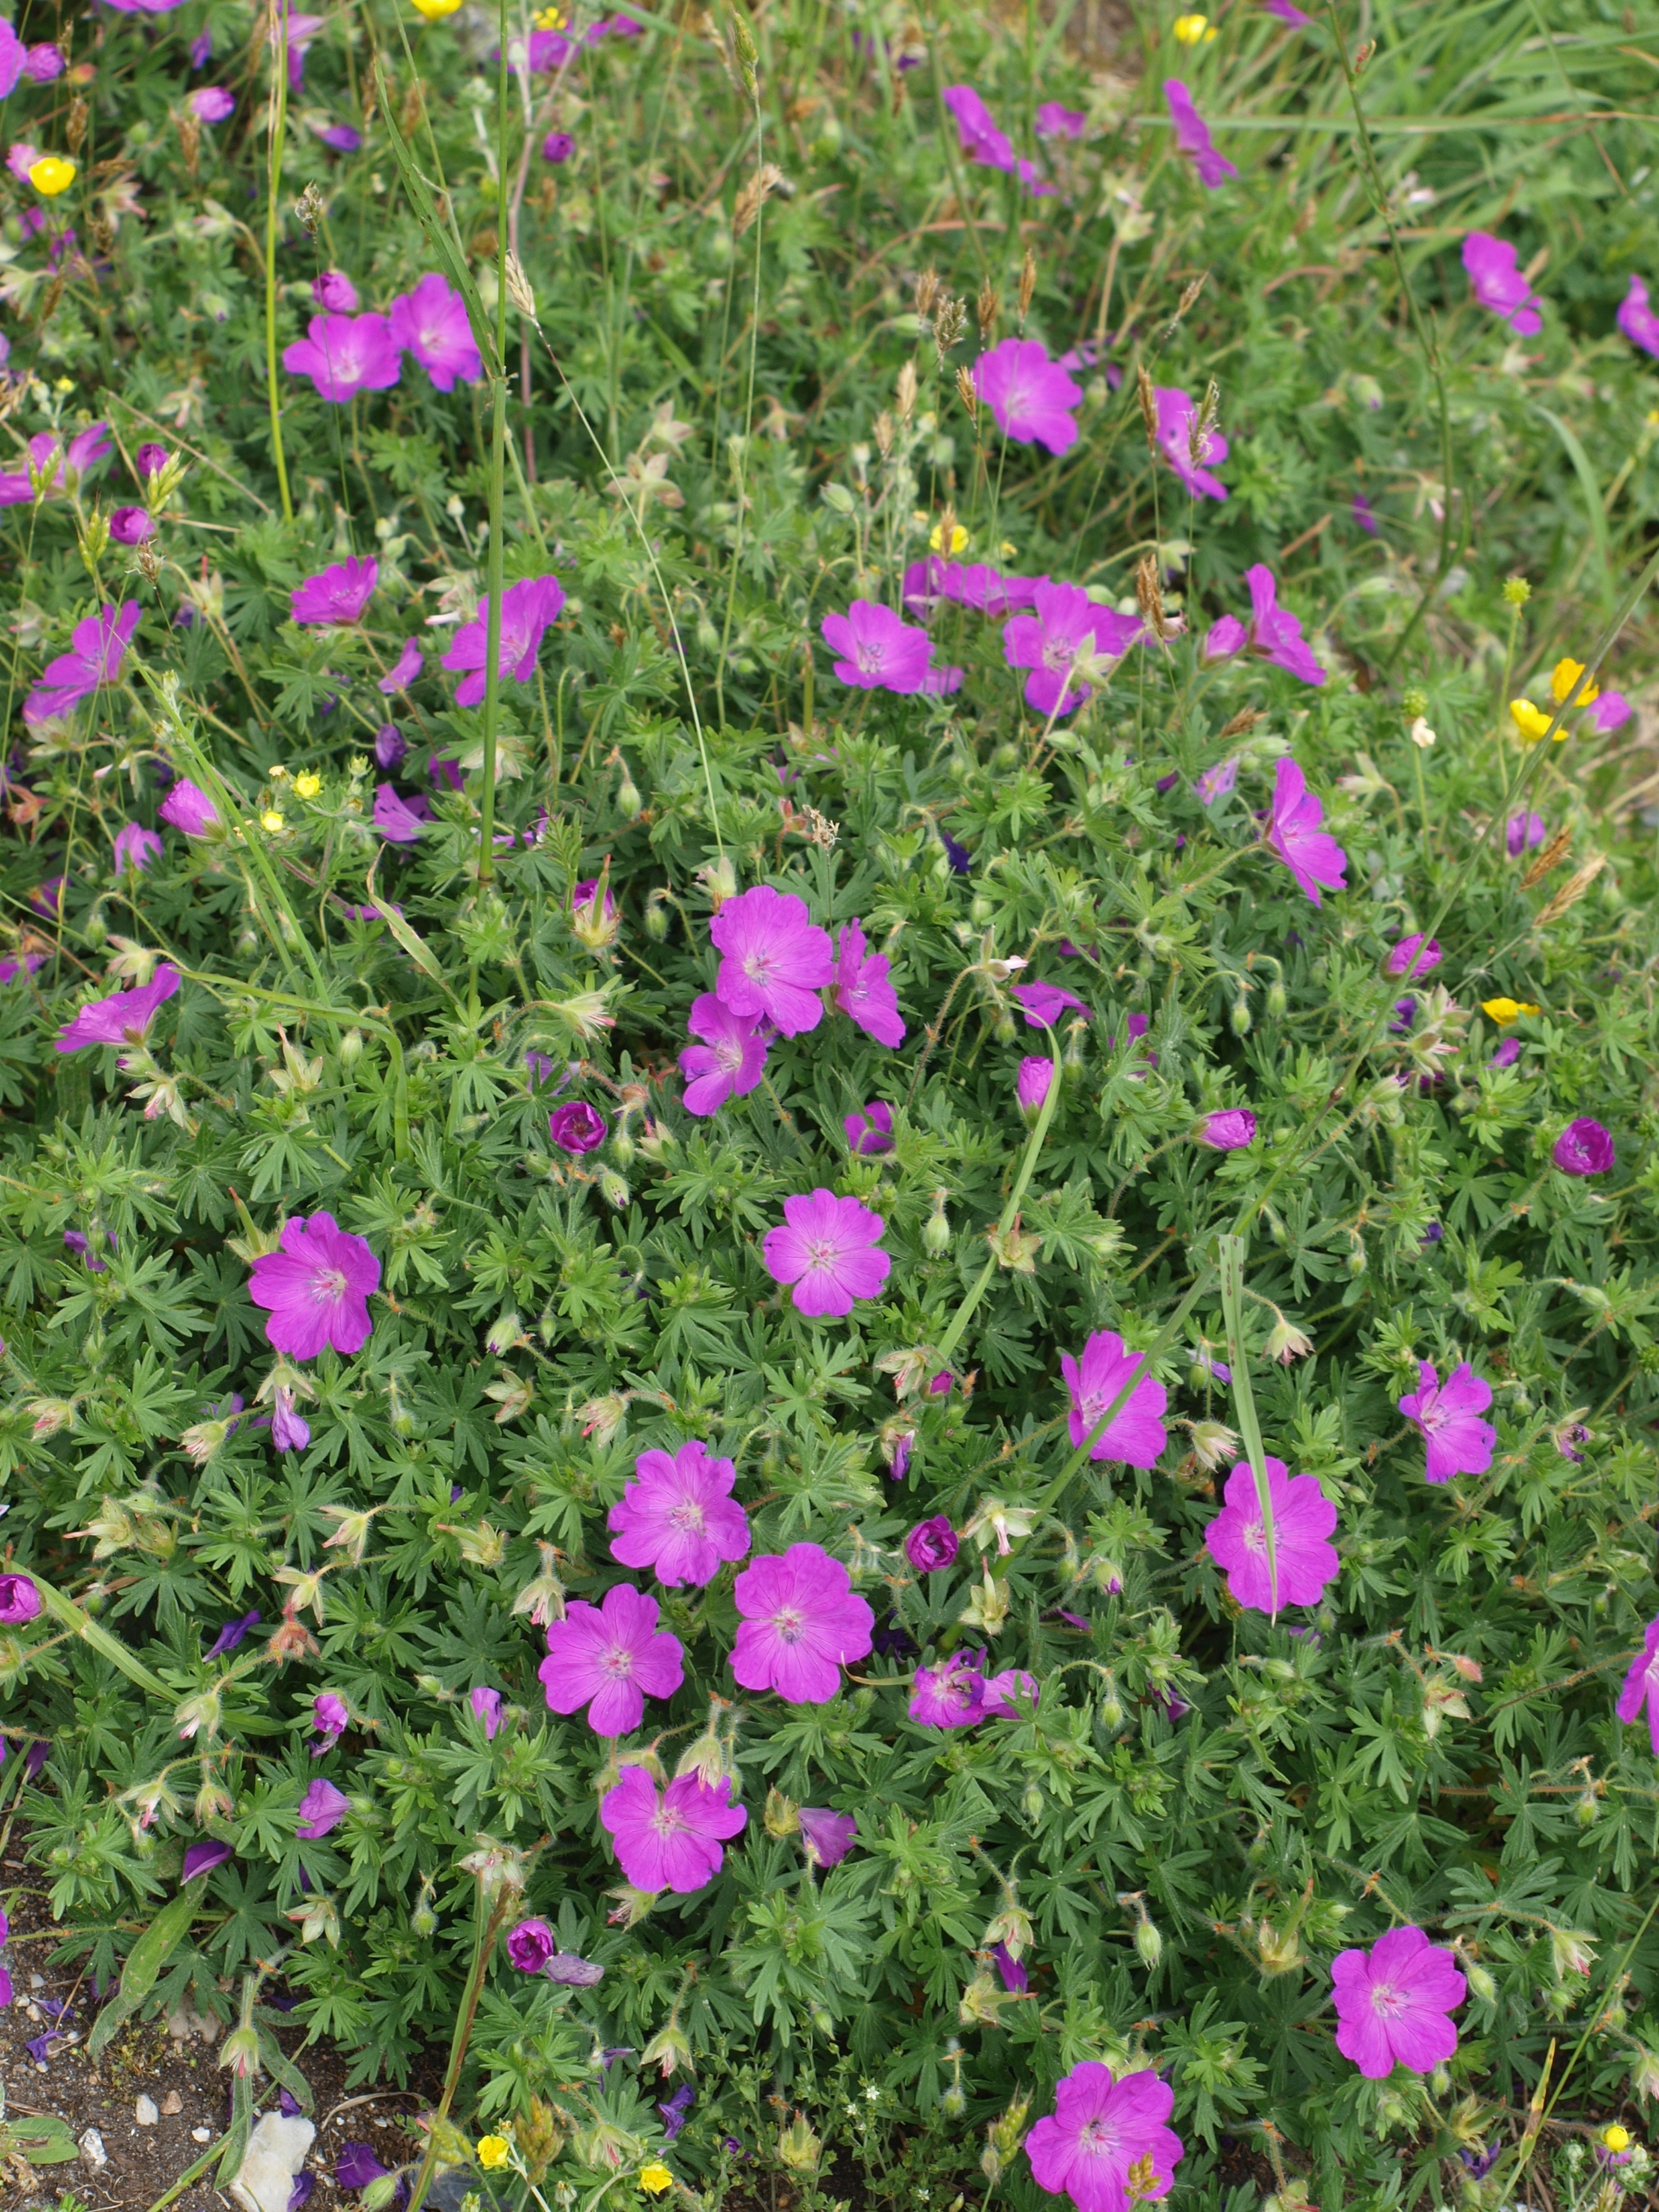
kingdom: Plantae
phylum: Tracheophyta
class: Magnoliopsida
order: Geraniales
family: Geraniaceae
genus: Geranium
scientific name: Geranium sanguineum
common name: Blodrød storkenæb
